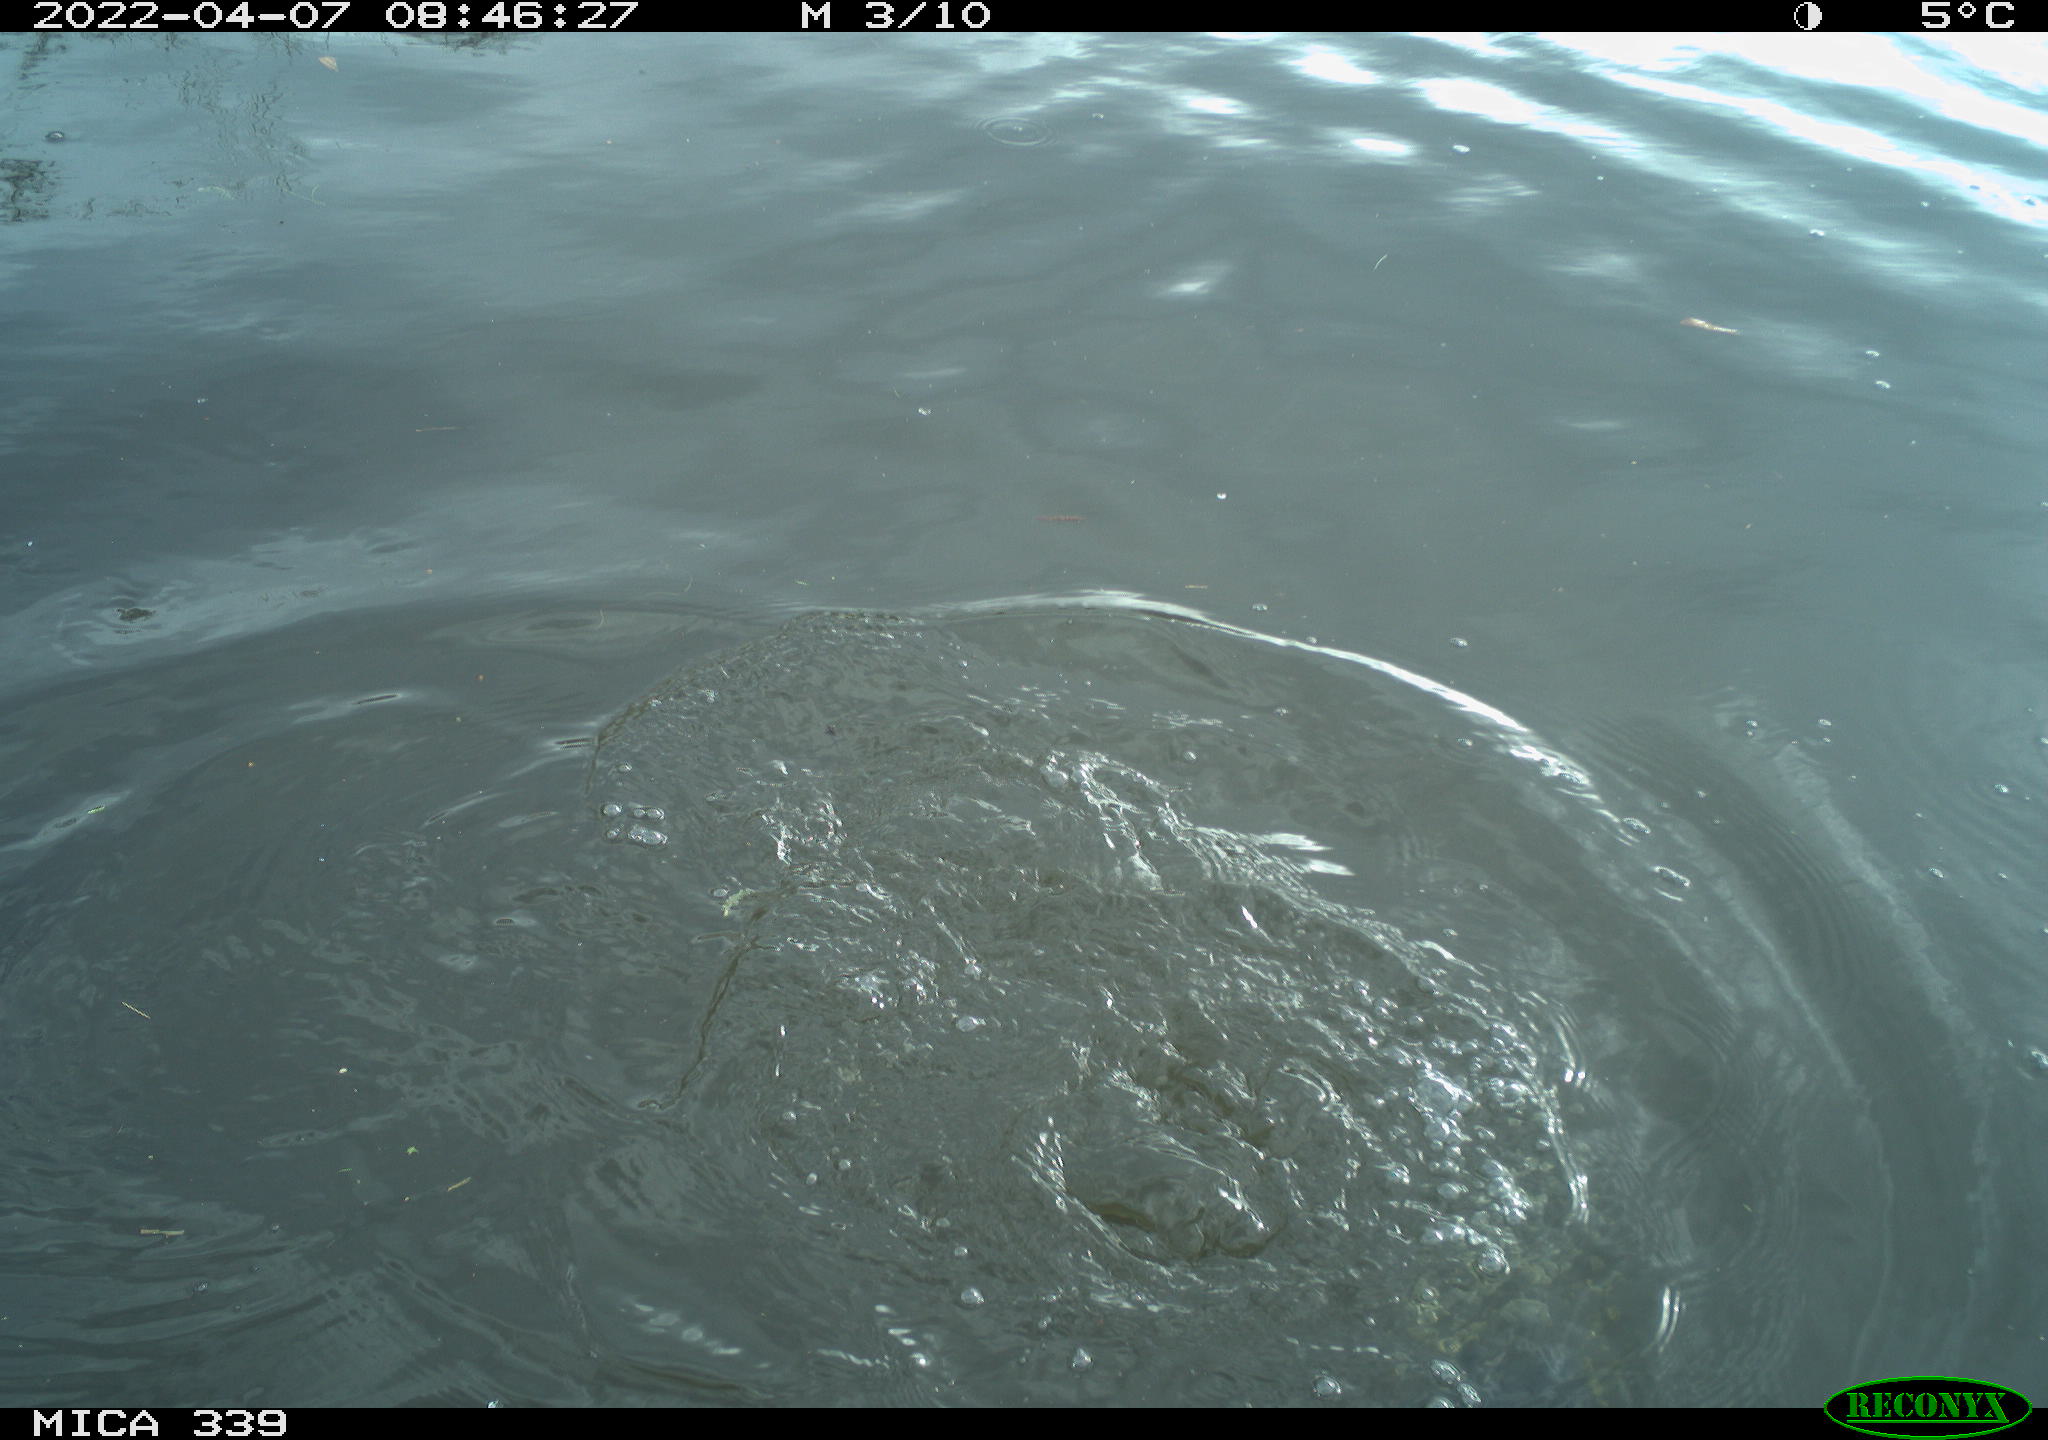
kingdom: Animalia
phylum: Chordata
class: Aves
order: Gruiformes
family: Rallidae
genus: Fulica
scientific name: Fulica atra
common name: Eurasian coot
